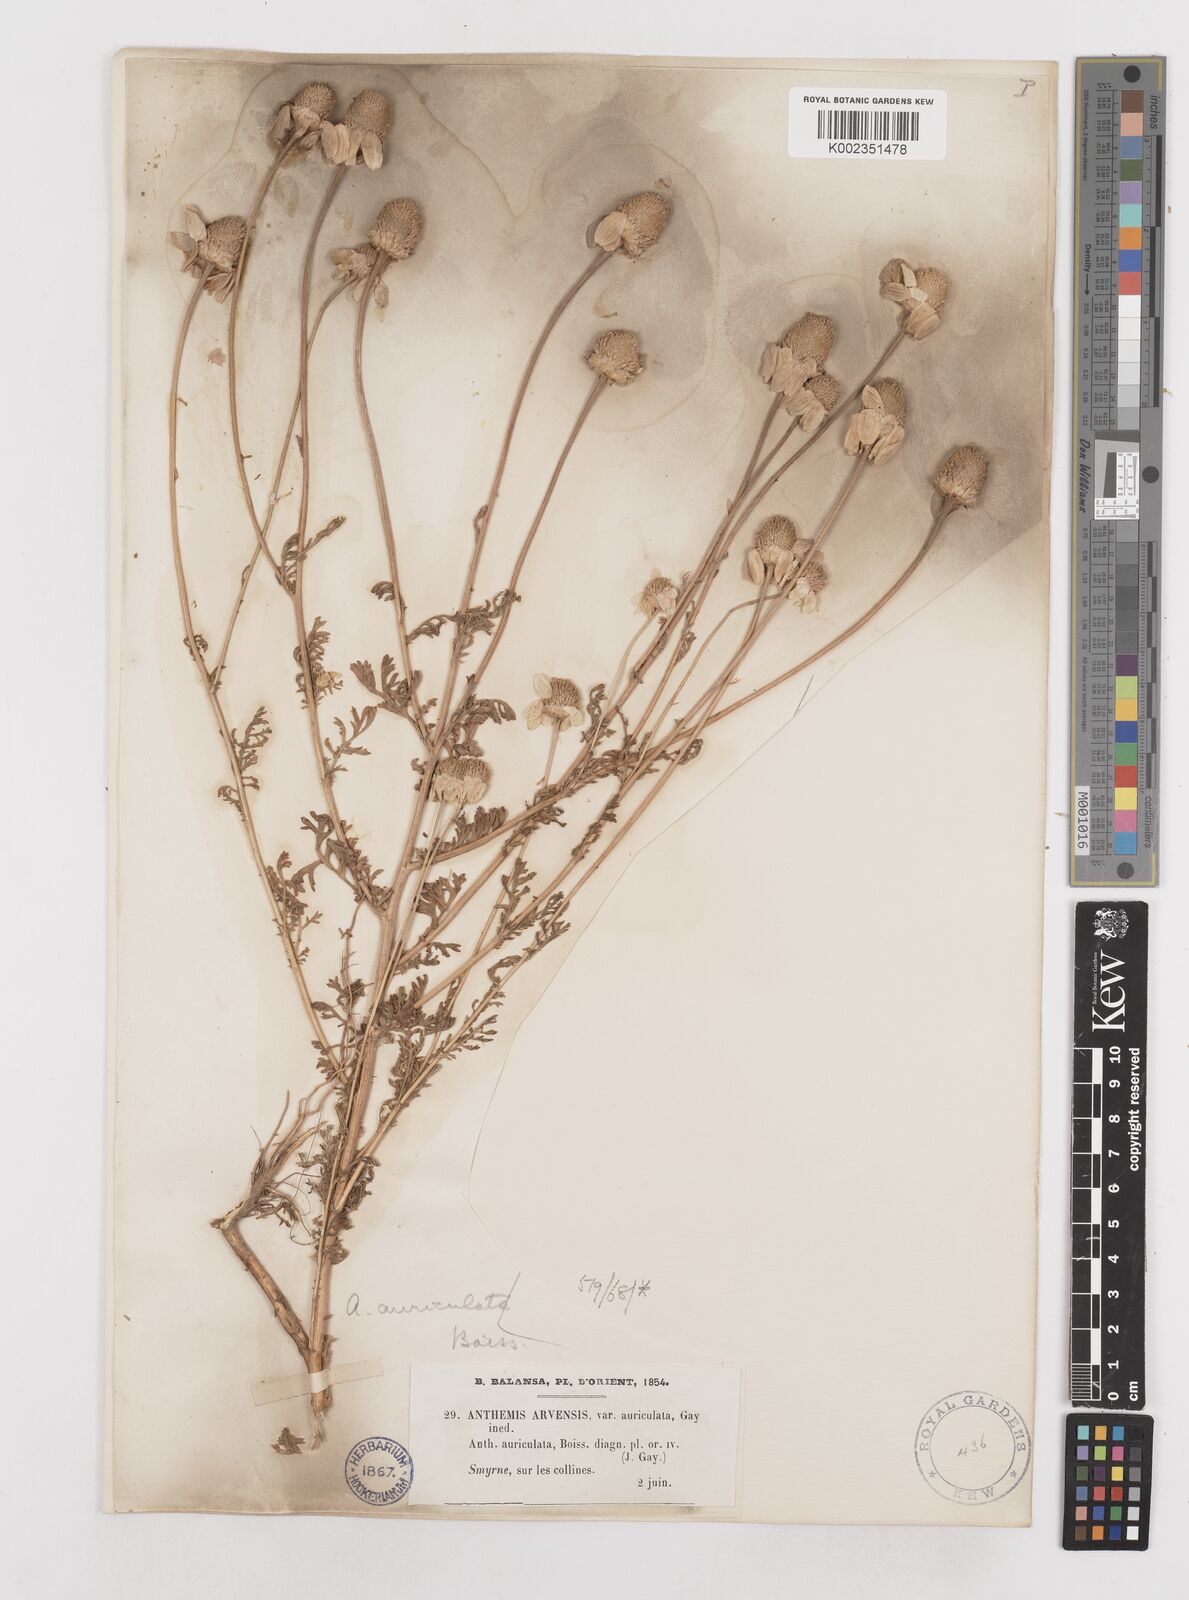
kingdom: Plantae
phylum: Tracheophyta
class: Magnoliopsida
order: Asterales
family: Asteraceae
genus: Anthemis
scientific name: Anthemis auriculata
